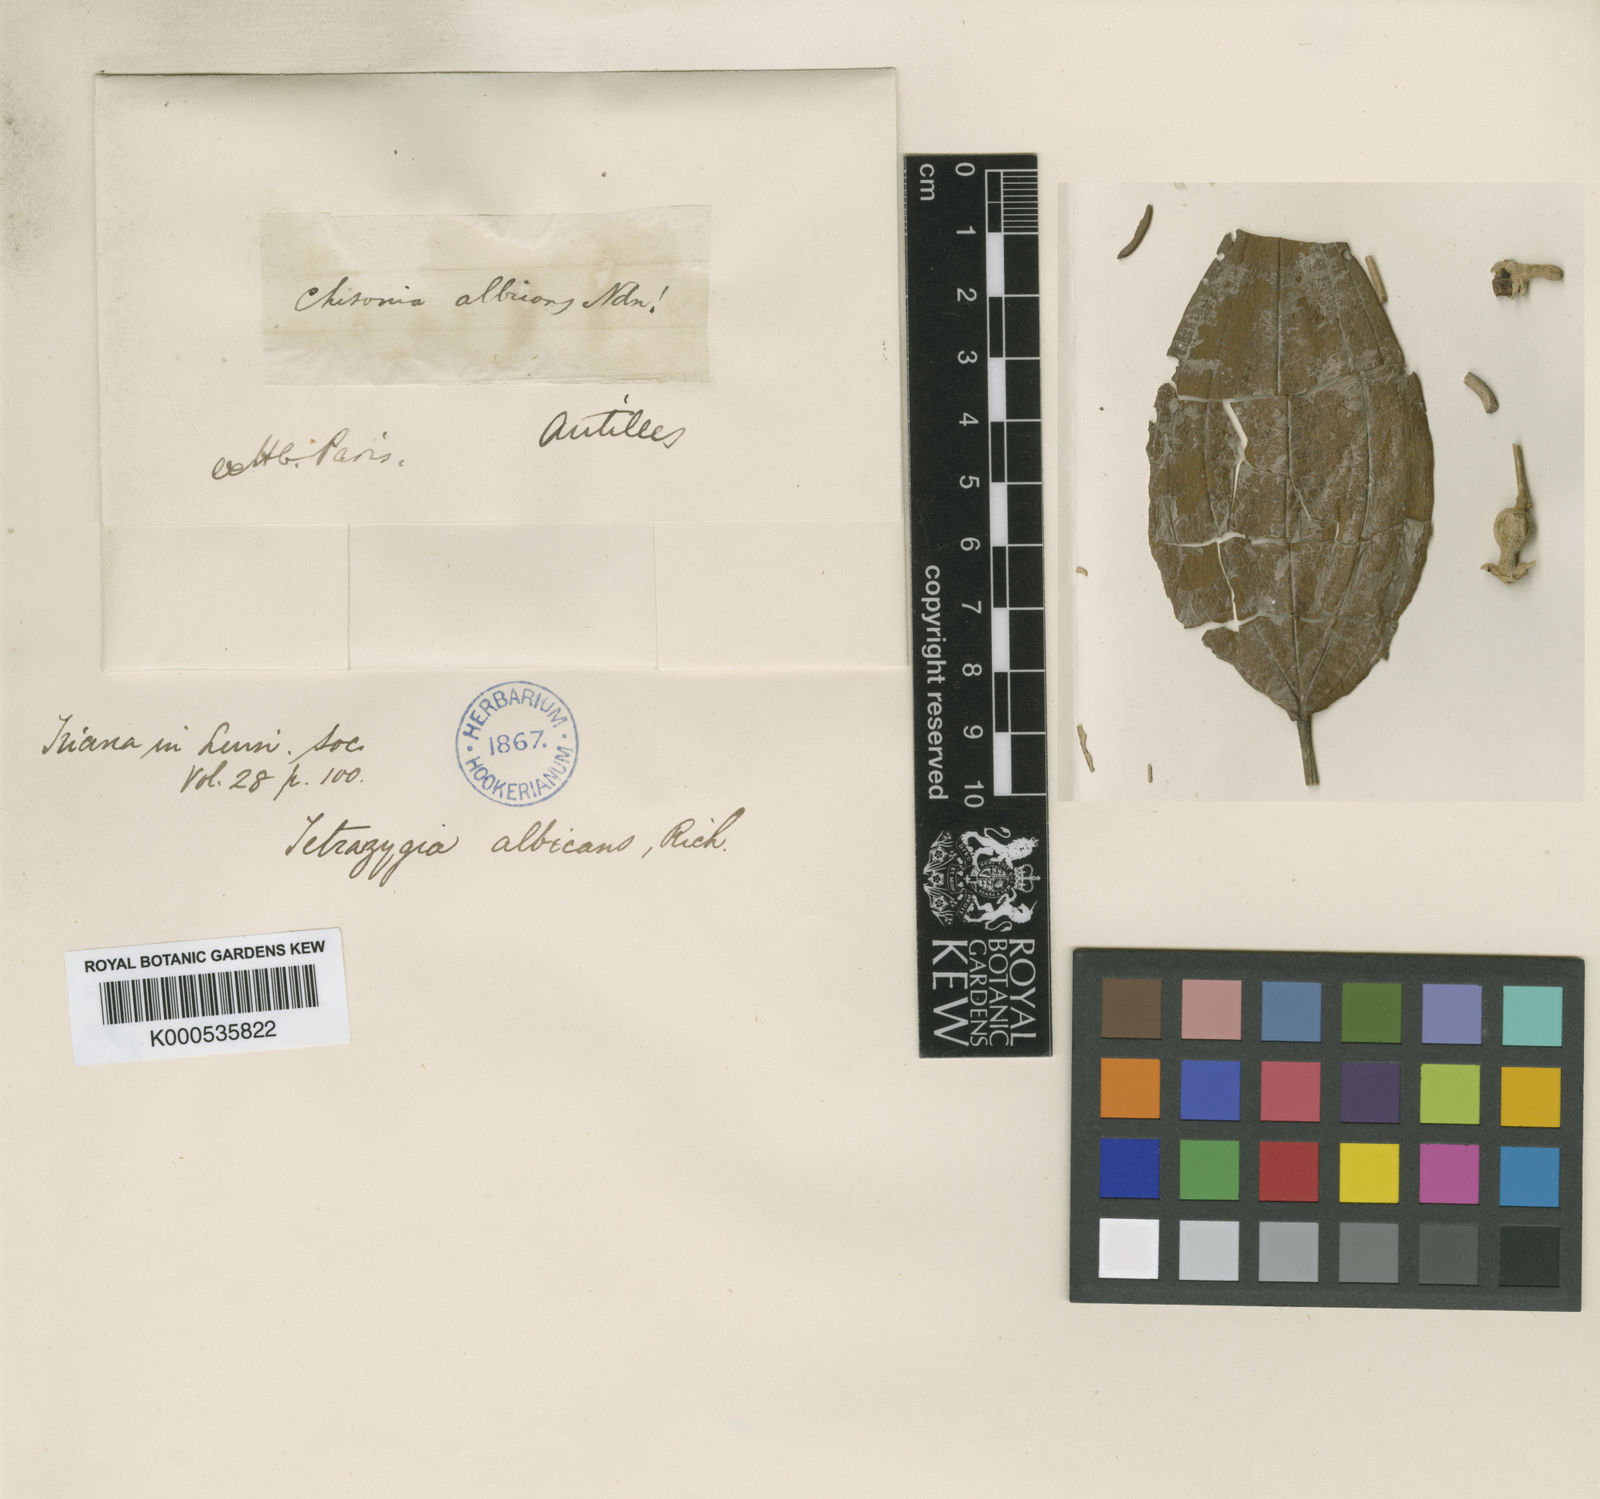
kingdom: Plantae
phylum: Tracheophyta
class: Magnoliopsida
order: Myrtales
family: Melastomataceae
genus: Miconia
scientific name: Miconia
